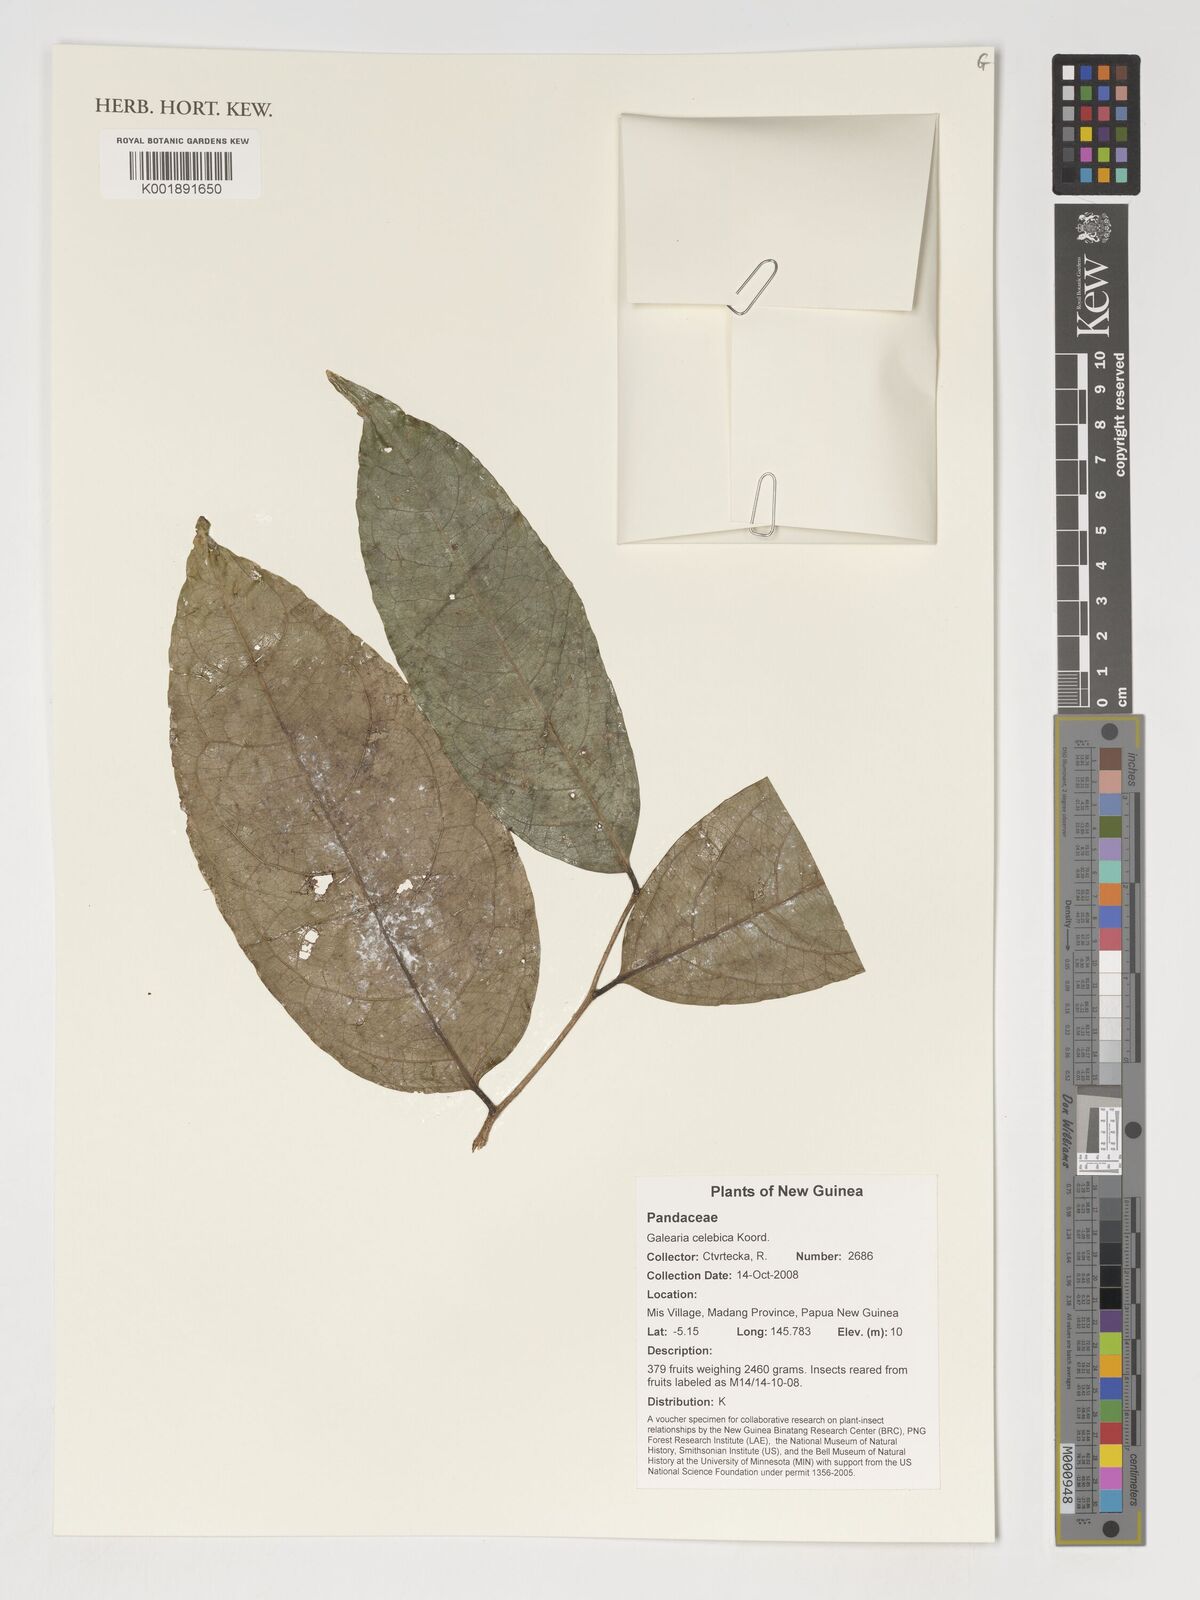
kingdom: Plantae
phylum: Tracheophyta
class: Magnoliopsida
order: Malpighiales
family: Pandaceae
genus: Galearia
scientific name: Galearia celebica
